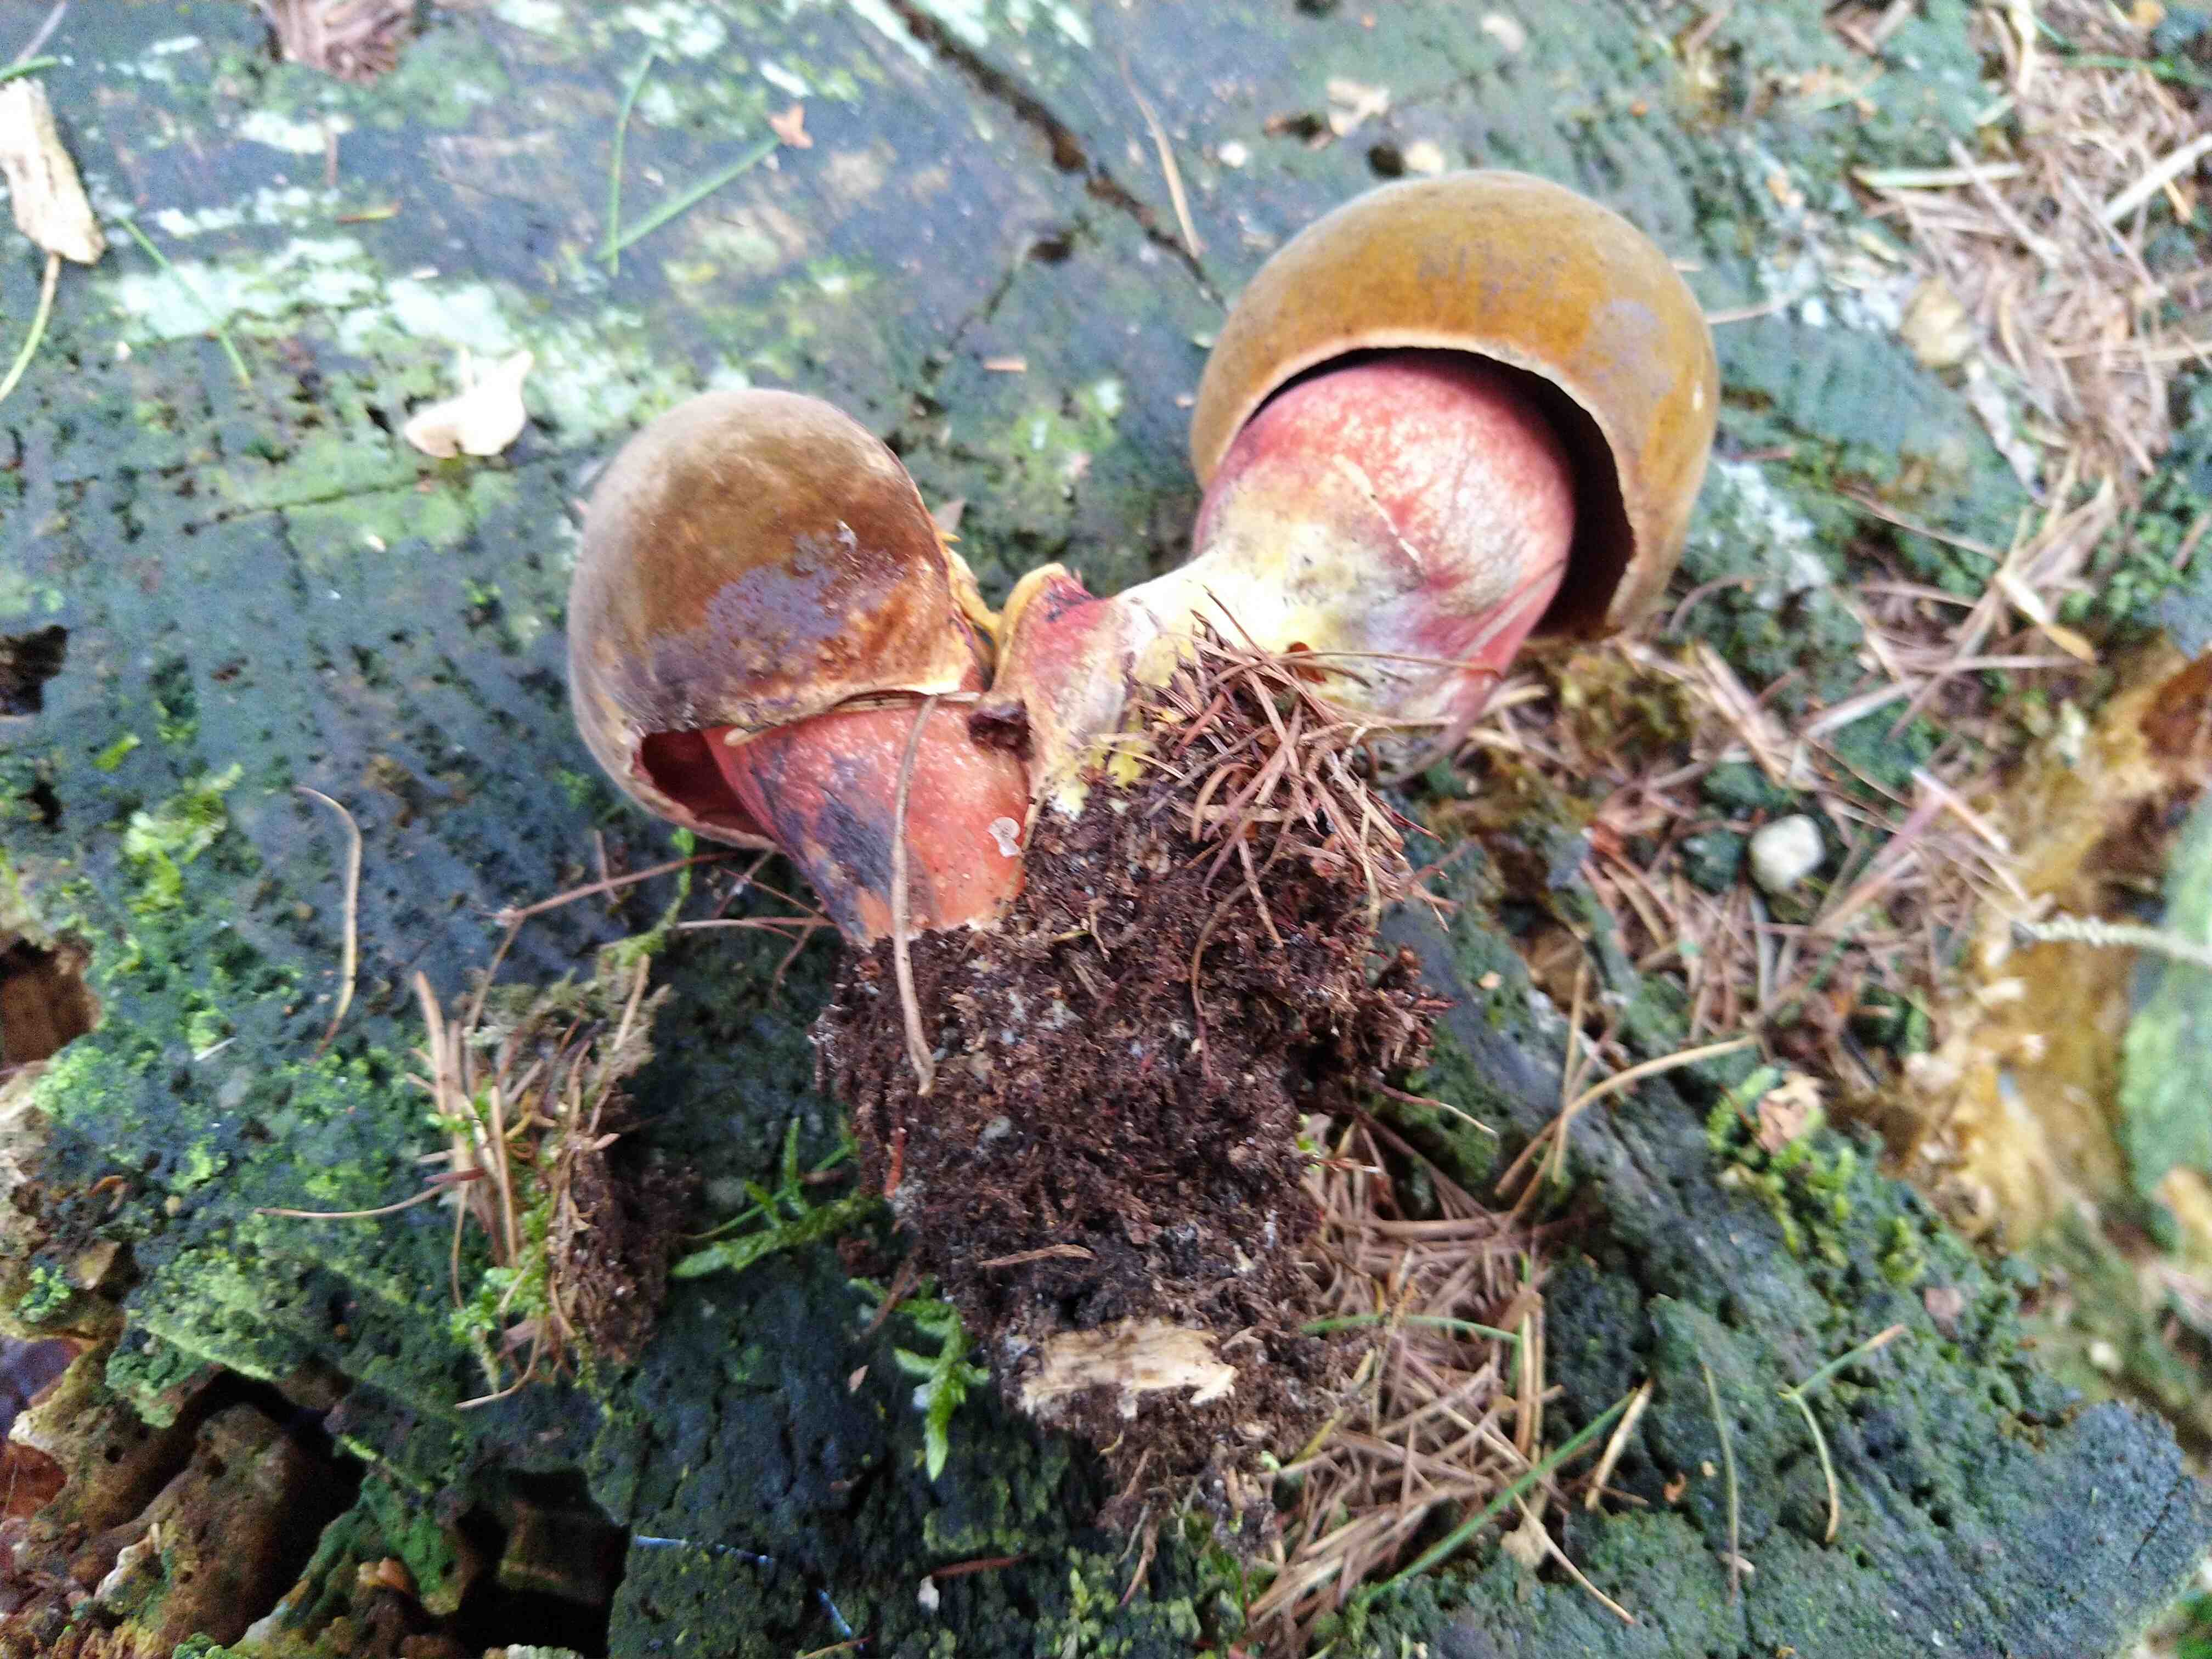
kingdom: Fungi
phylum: Basidiomycota
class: Agaricomycetes
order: Boletales
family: Boletaceae
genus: Neoboletus
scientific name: Neoboletus erythropus
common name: punktstokket indigorørhat
